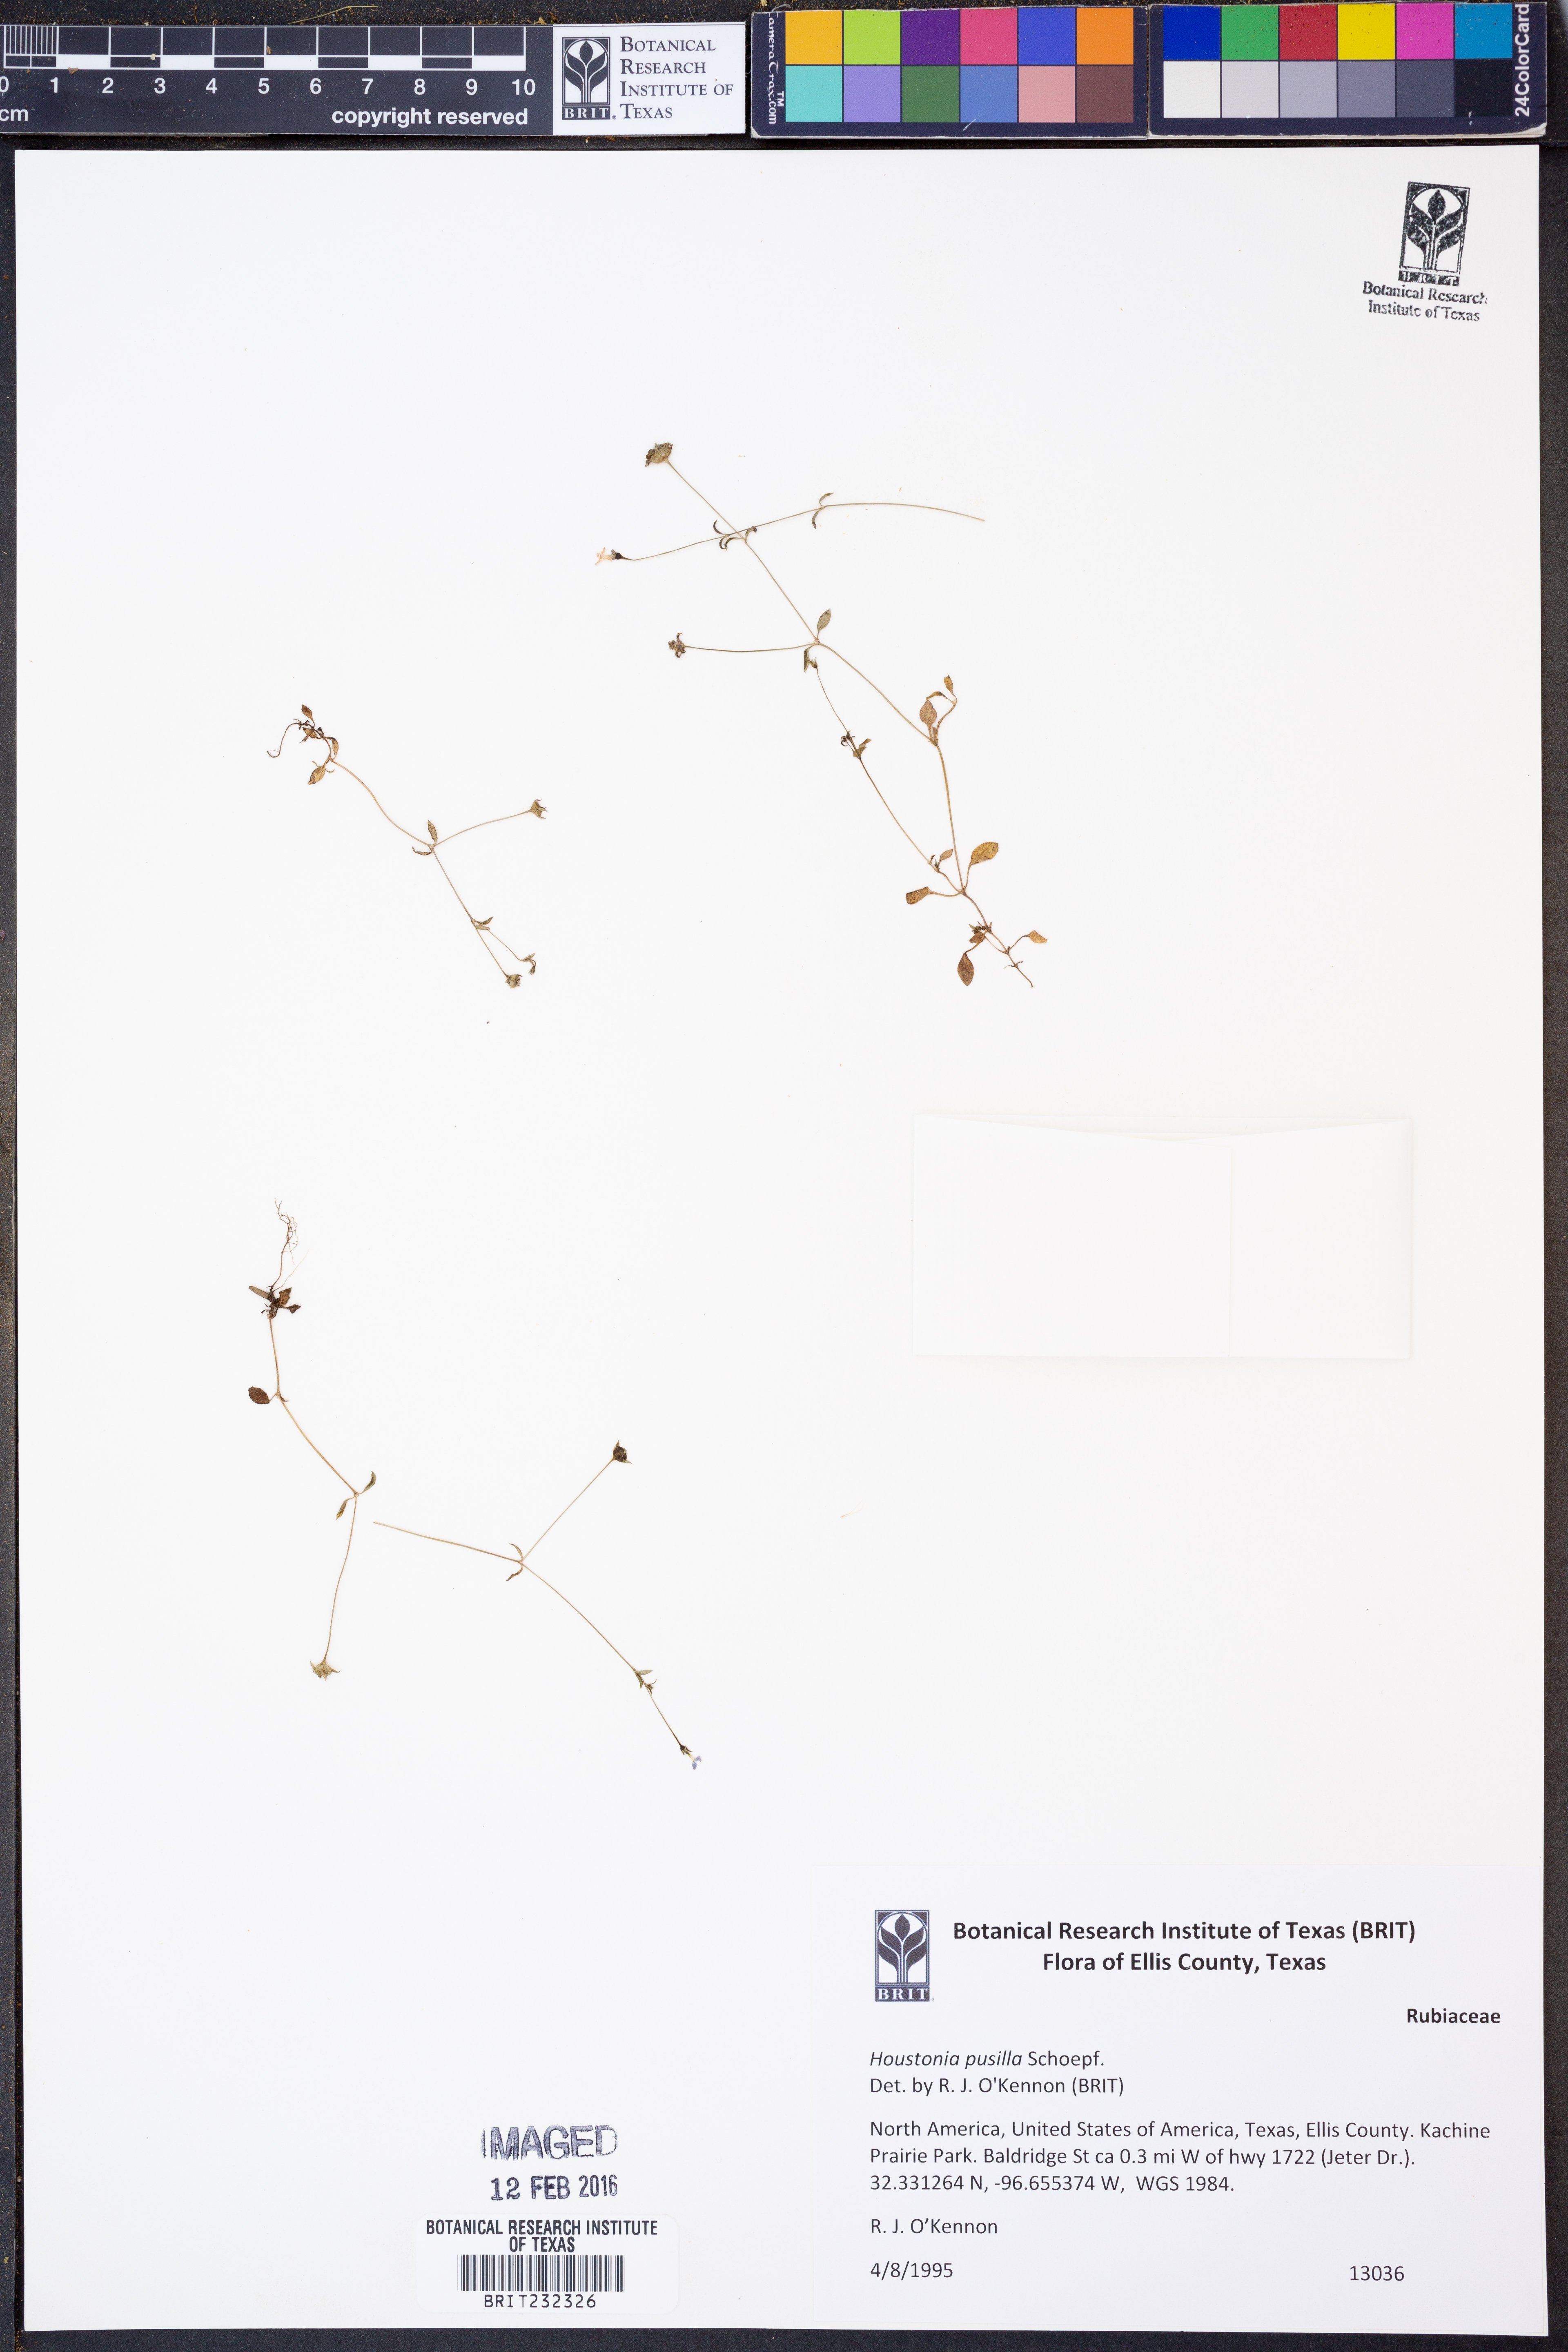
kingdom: Plantae
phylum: Tracheophyta
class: Magnoliopsida
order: Gentianales
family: Rubiaceae
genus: Houstonia
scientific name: Houstonia pusilla
